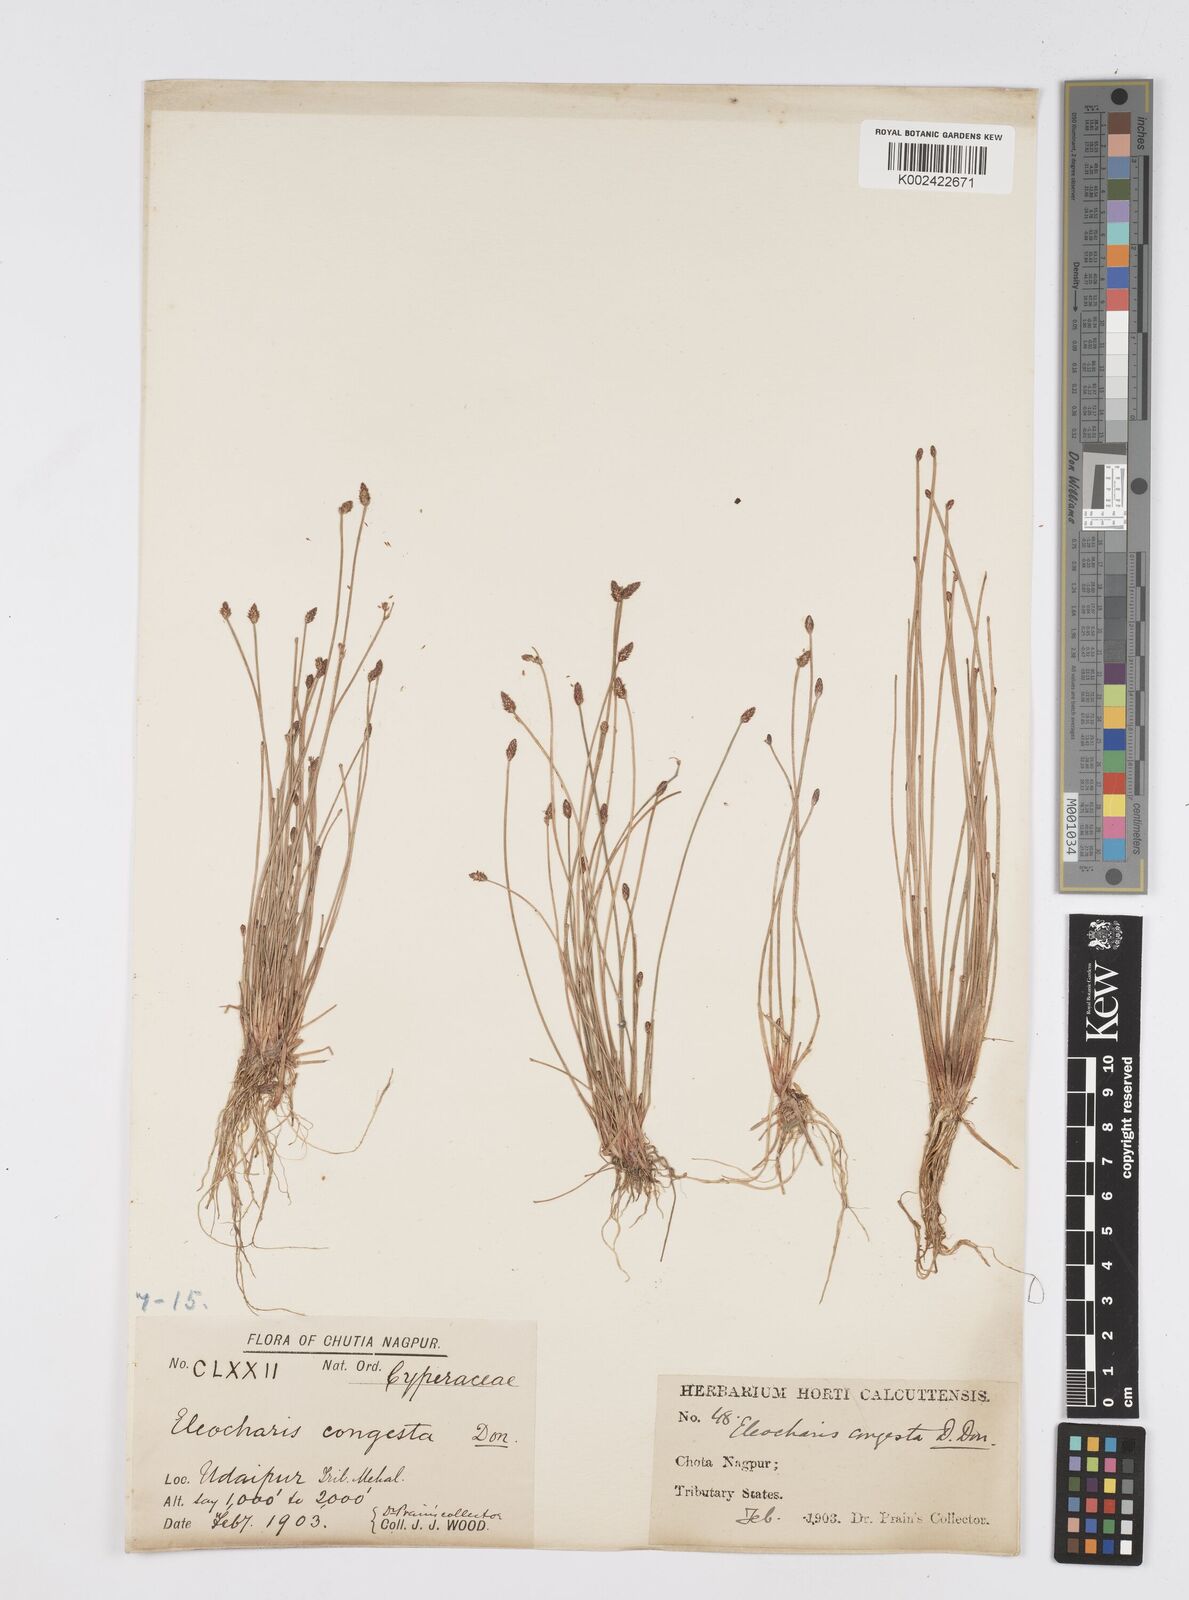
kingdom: Plantae
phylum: Tracheophyta
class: Liliopsida
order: Poales
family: Cyperaceae
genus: Eleocharis
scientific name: Eleocharis congesta
